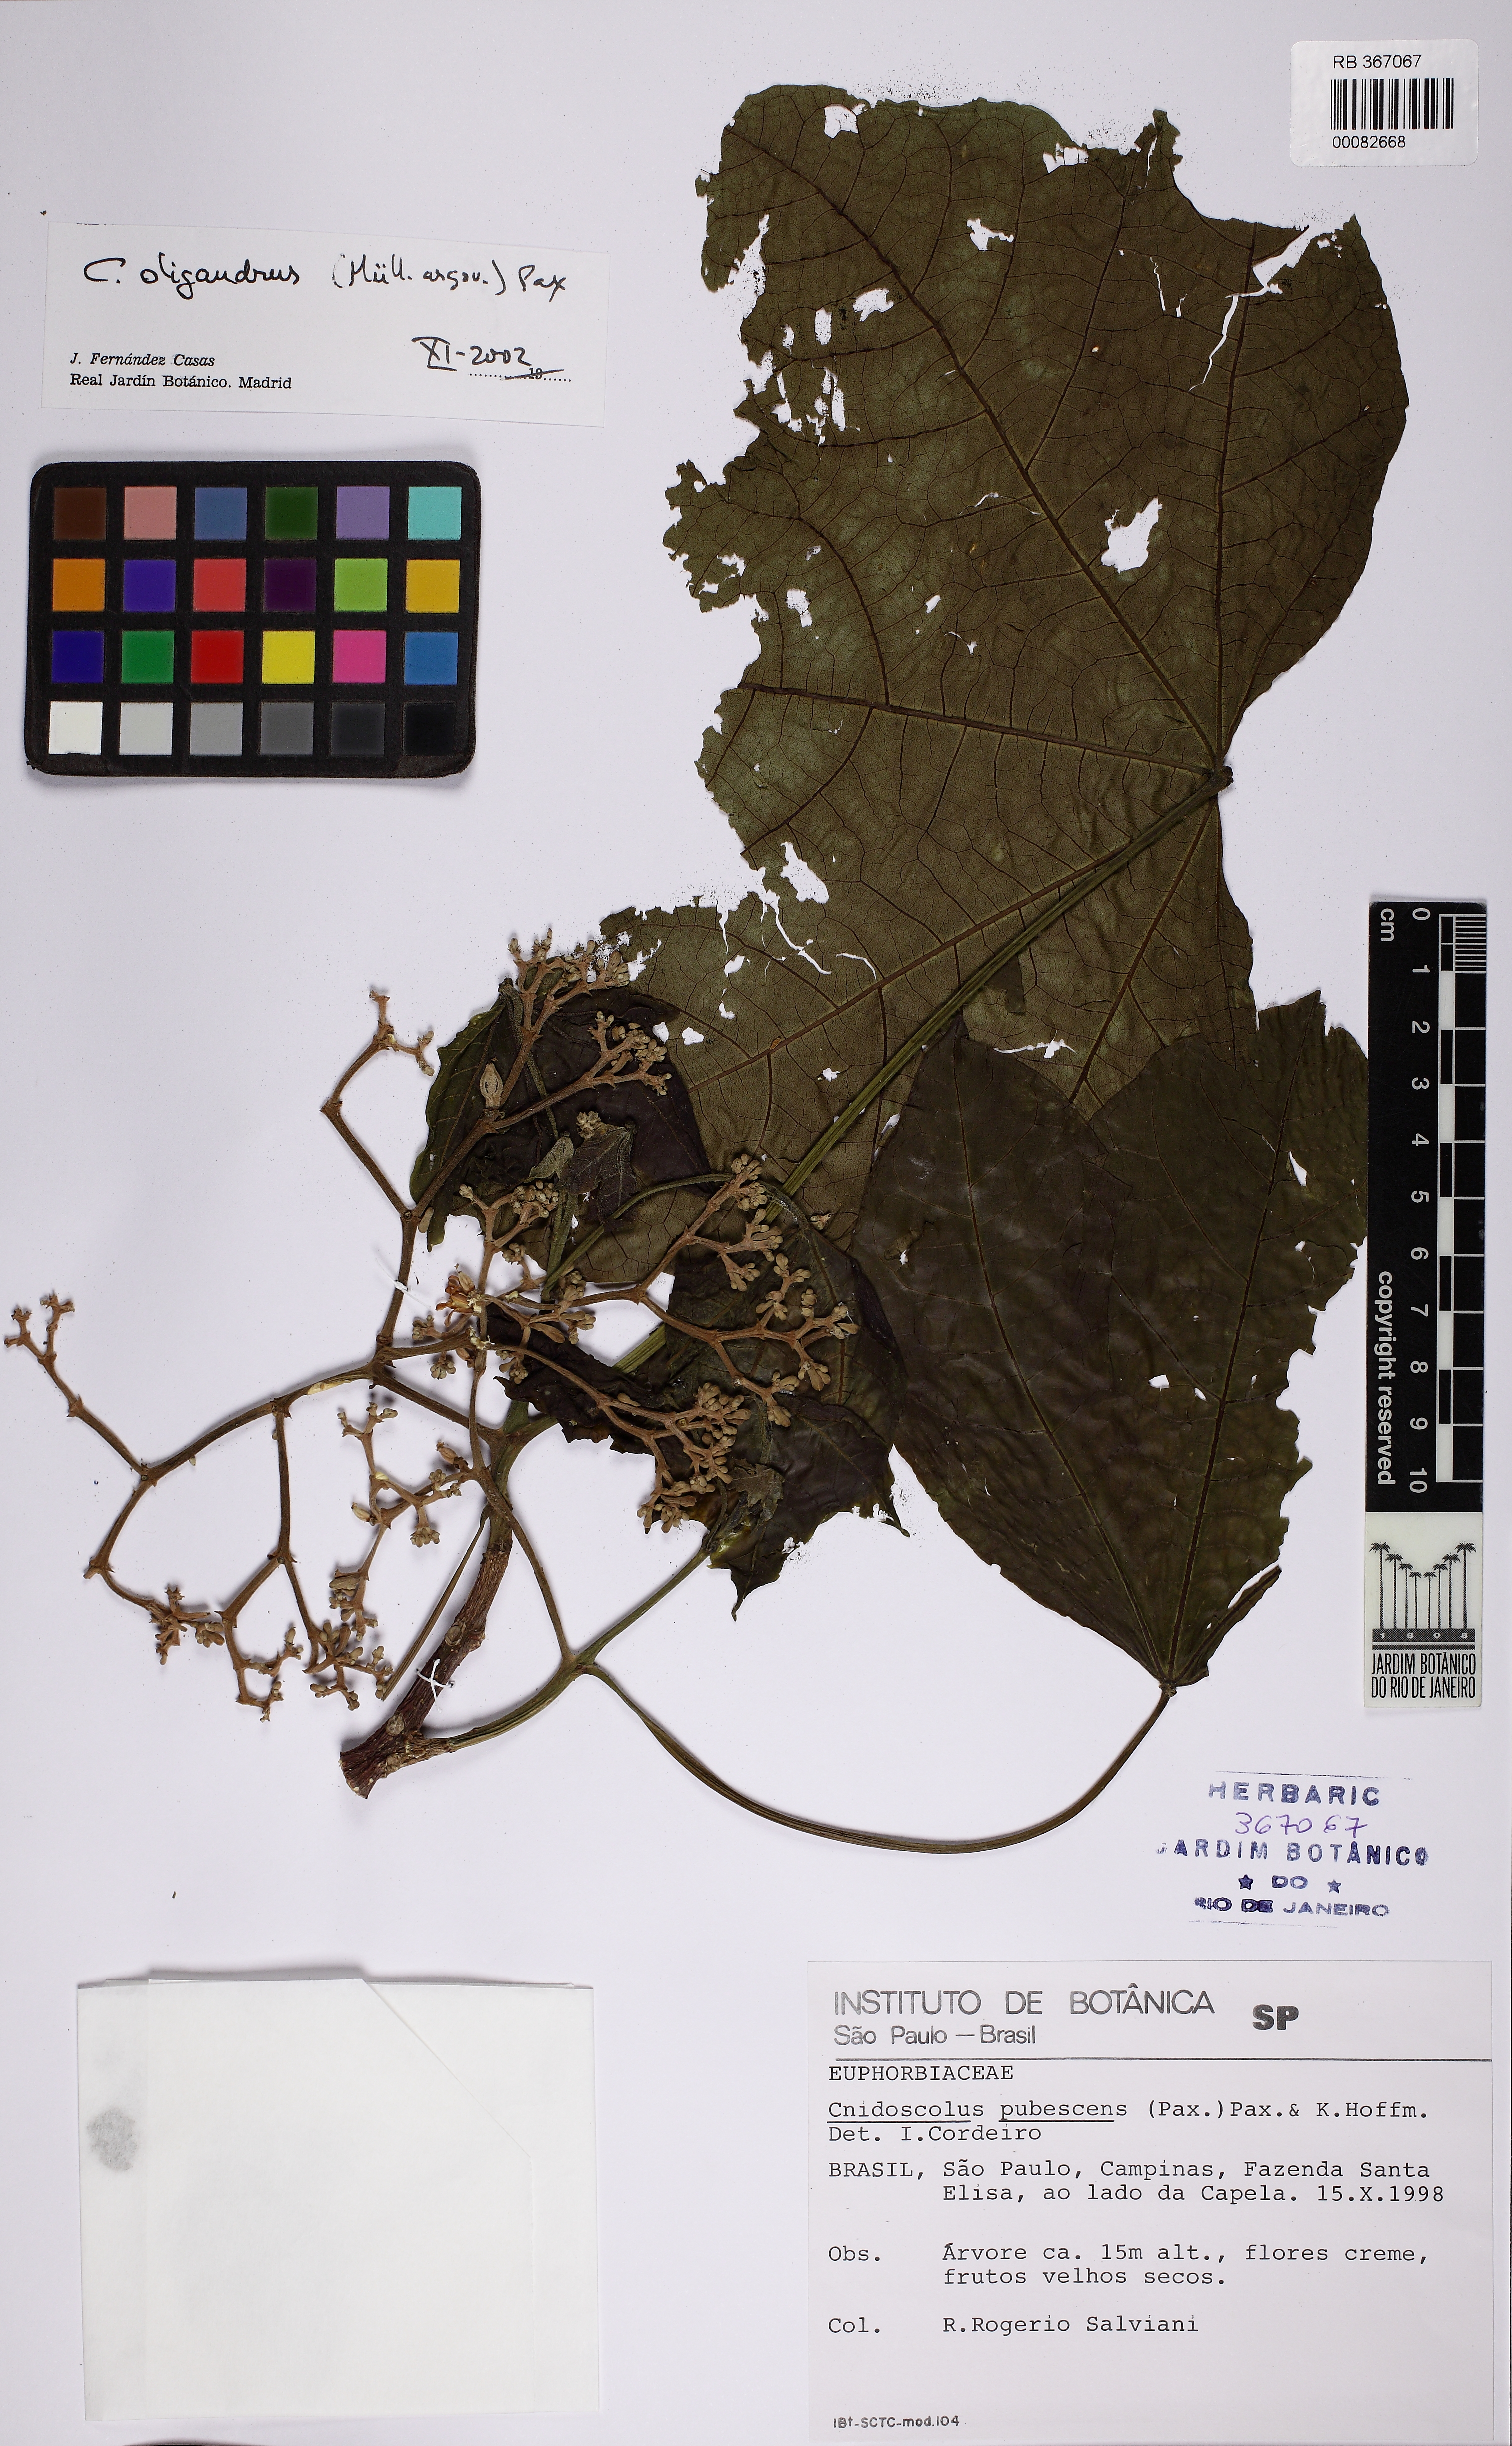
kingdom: Plantae
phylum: Tracheophyta
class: Magnoliopsida
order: Malpighiales
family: Euphorbiaceae
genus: Cnidoscolus
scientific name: Cnidoscolus pubescens
